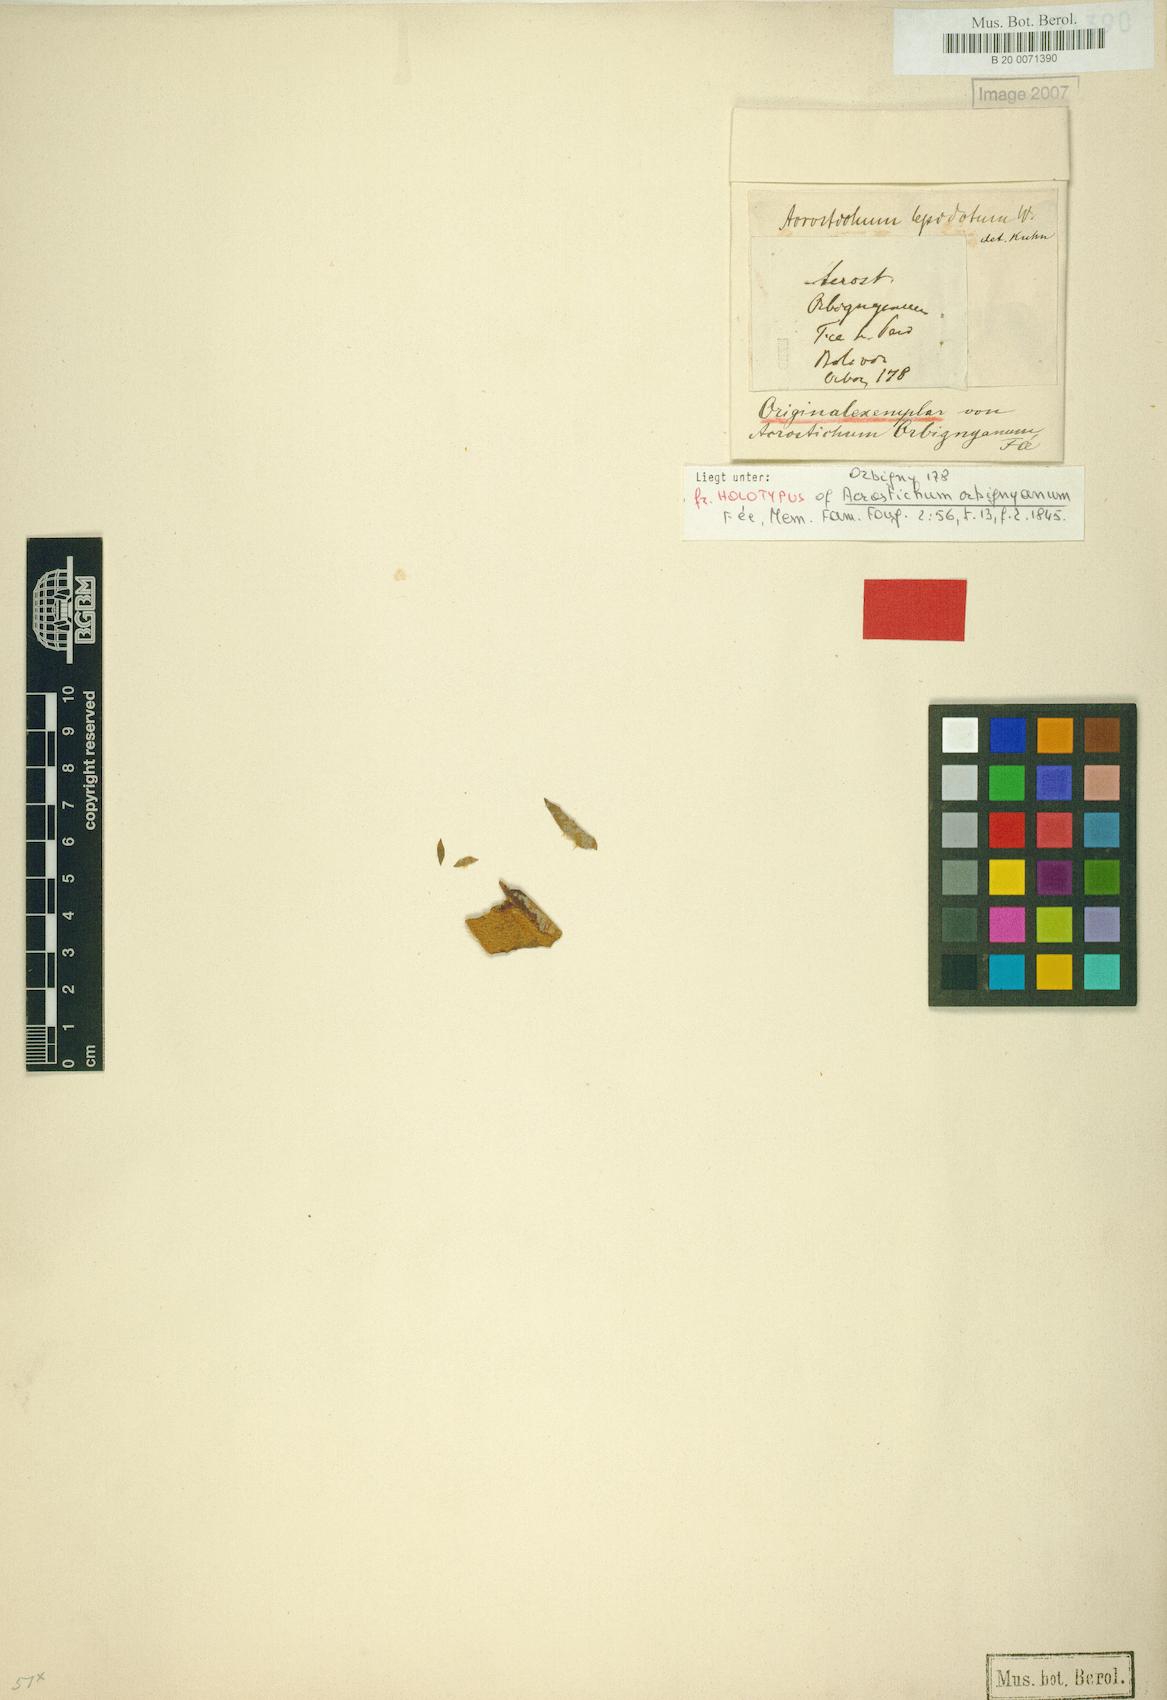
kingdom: Plantae
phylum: Tracheophyta
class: Polypodiopsida
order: Polypodiales
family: Dryopteridaceae
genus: Elaphoglossum
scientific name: Elaphoglossum orbignyanum
